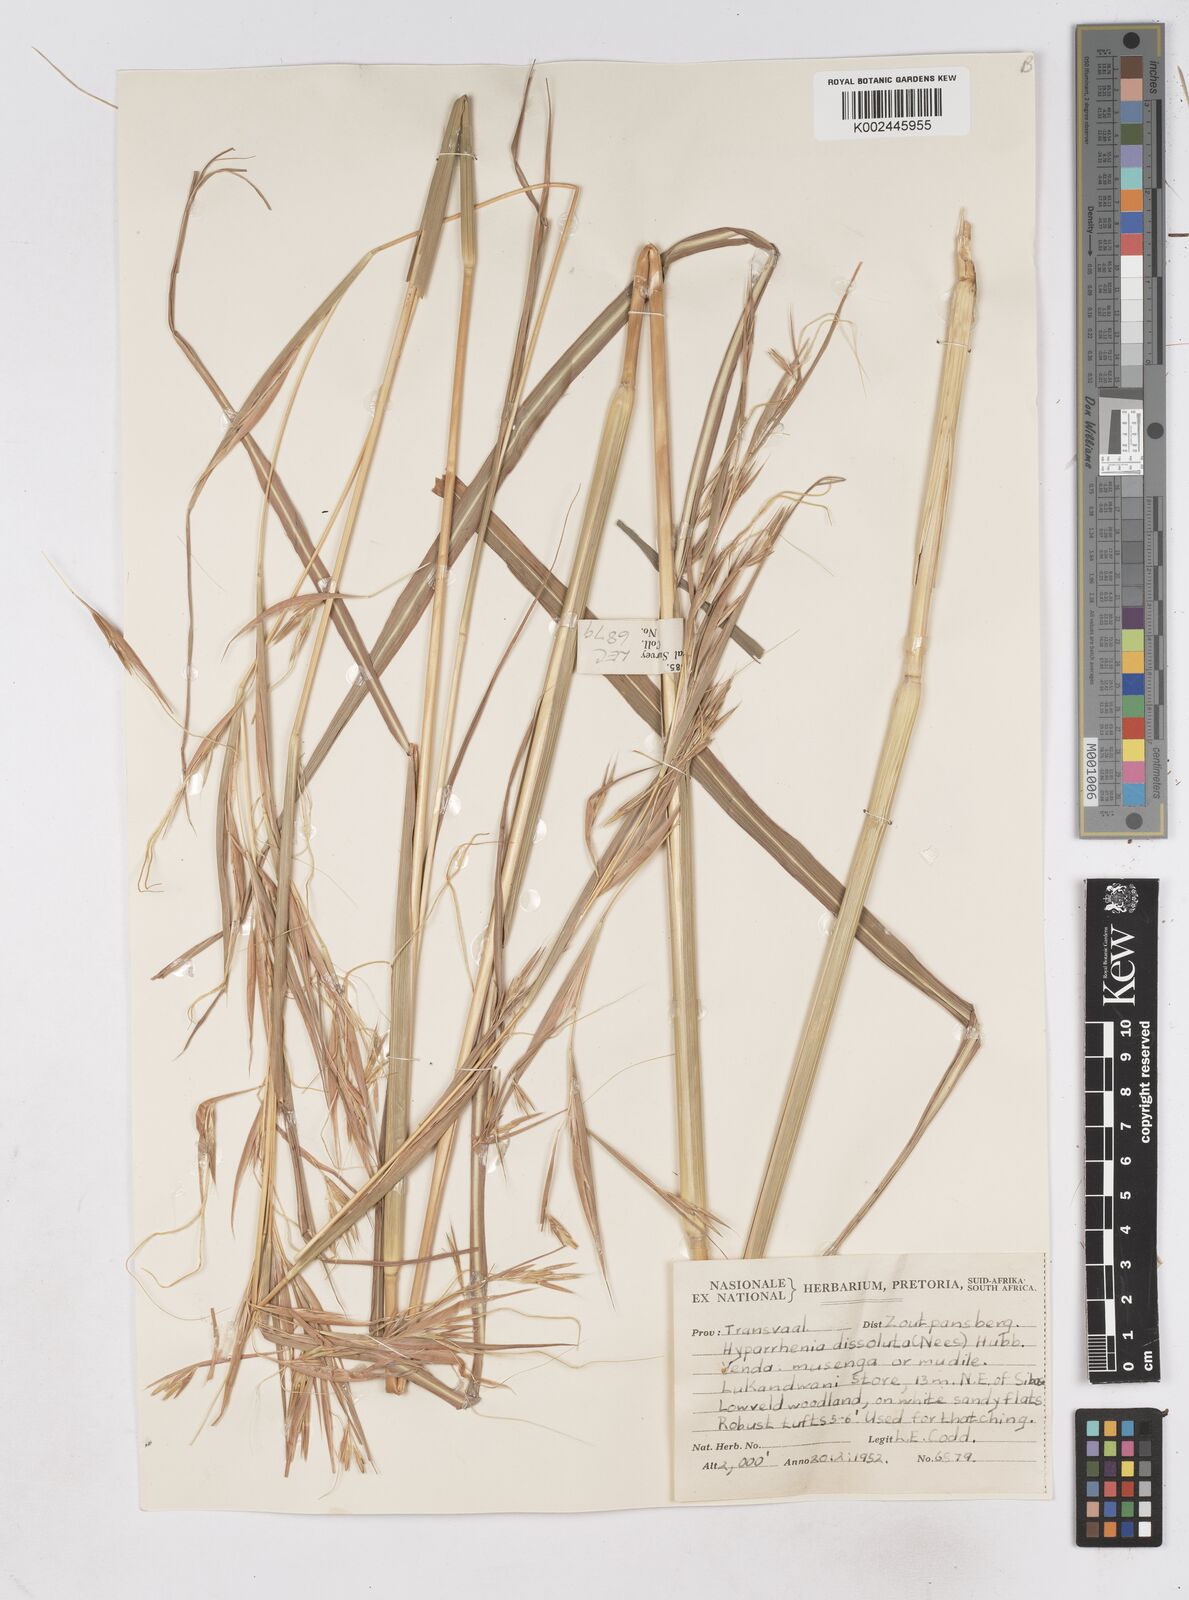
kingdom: Plantae
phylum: Tracheophyta
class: Liliopsida
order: Poales
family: Poaceae
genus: Hyperthelia
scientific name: Hyperthelia dissoluta
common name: Yellow thatching grass
